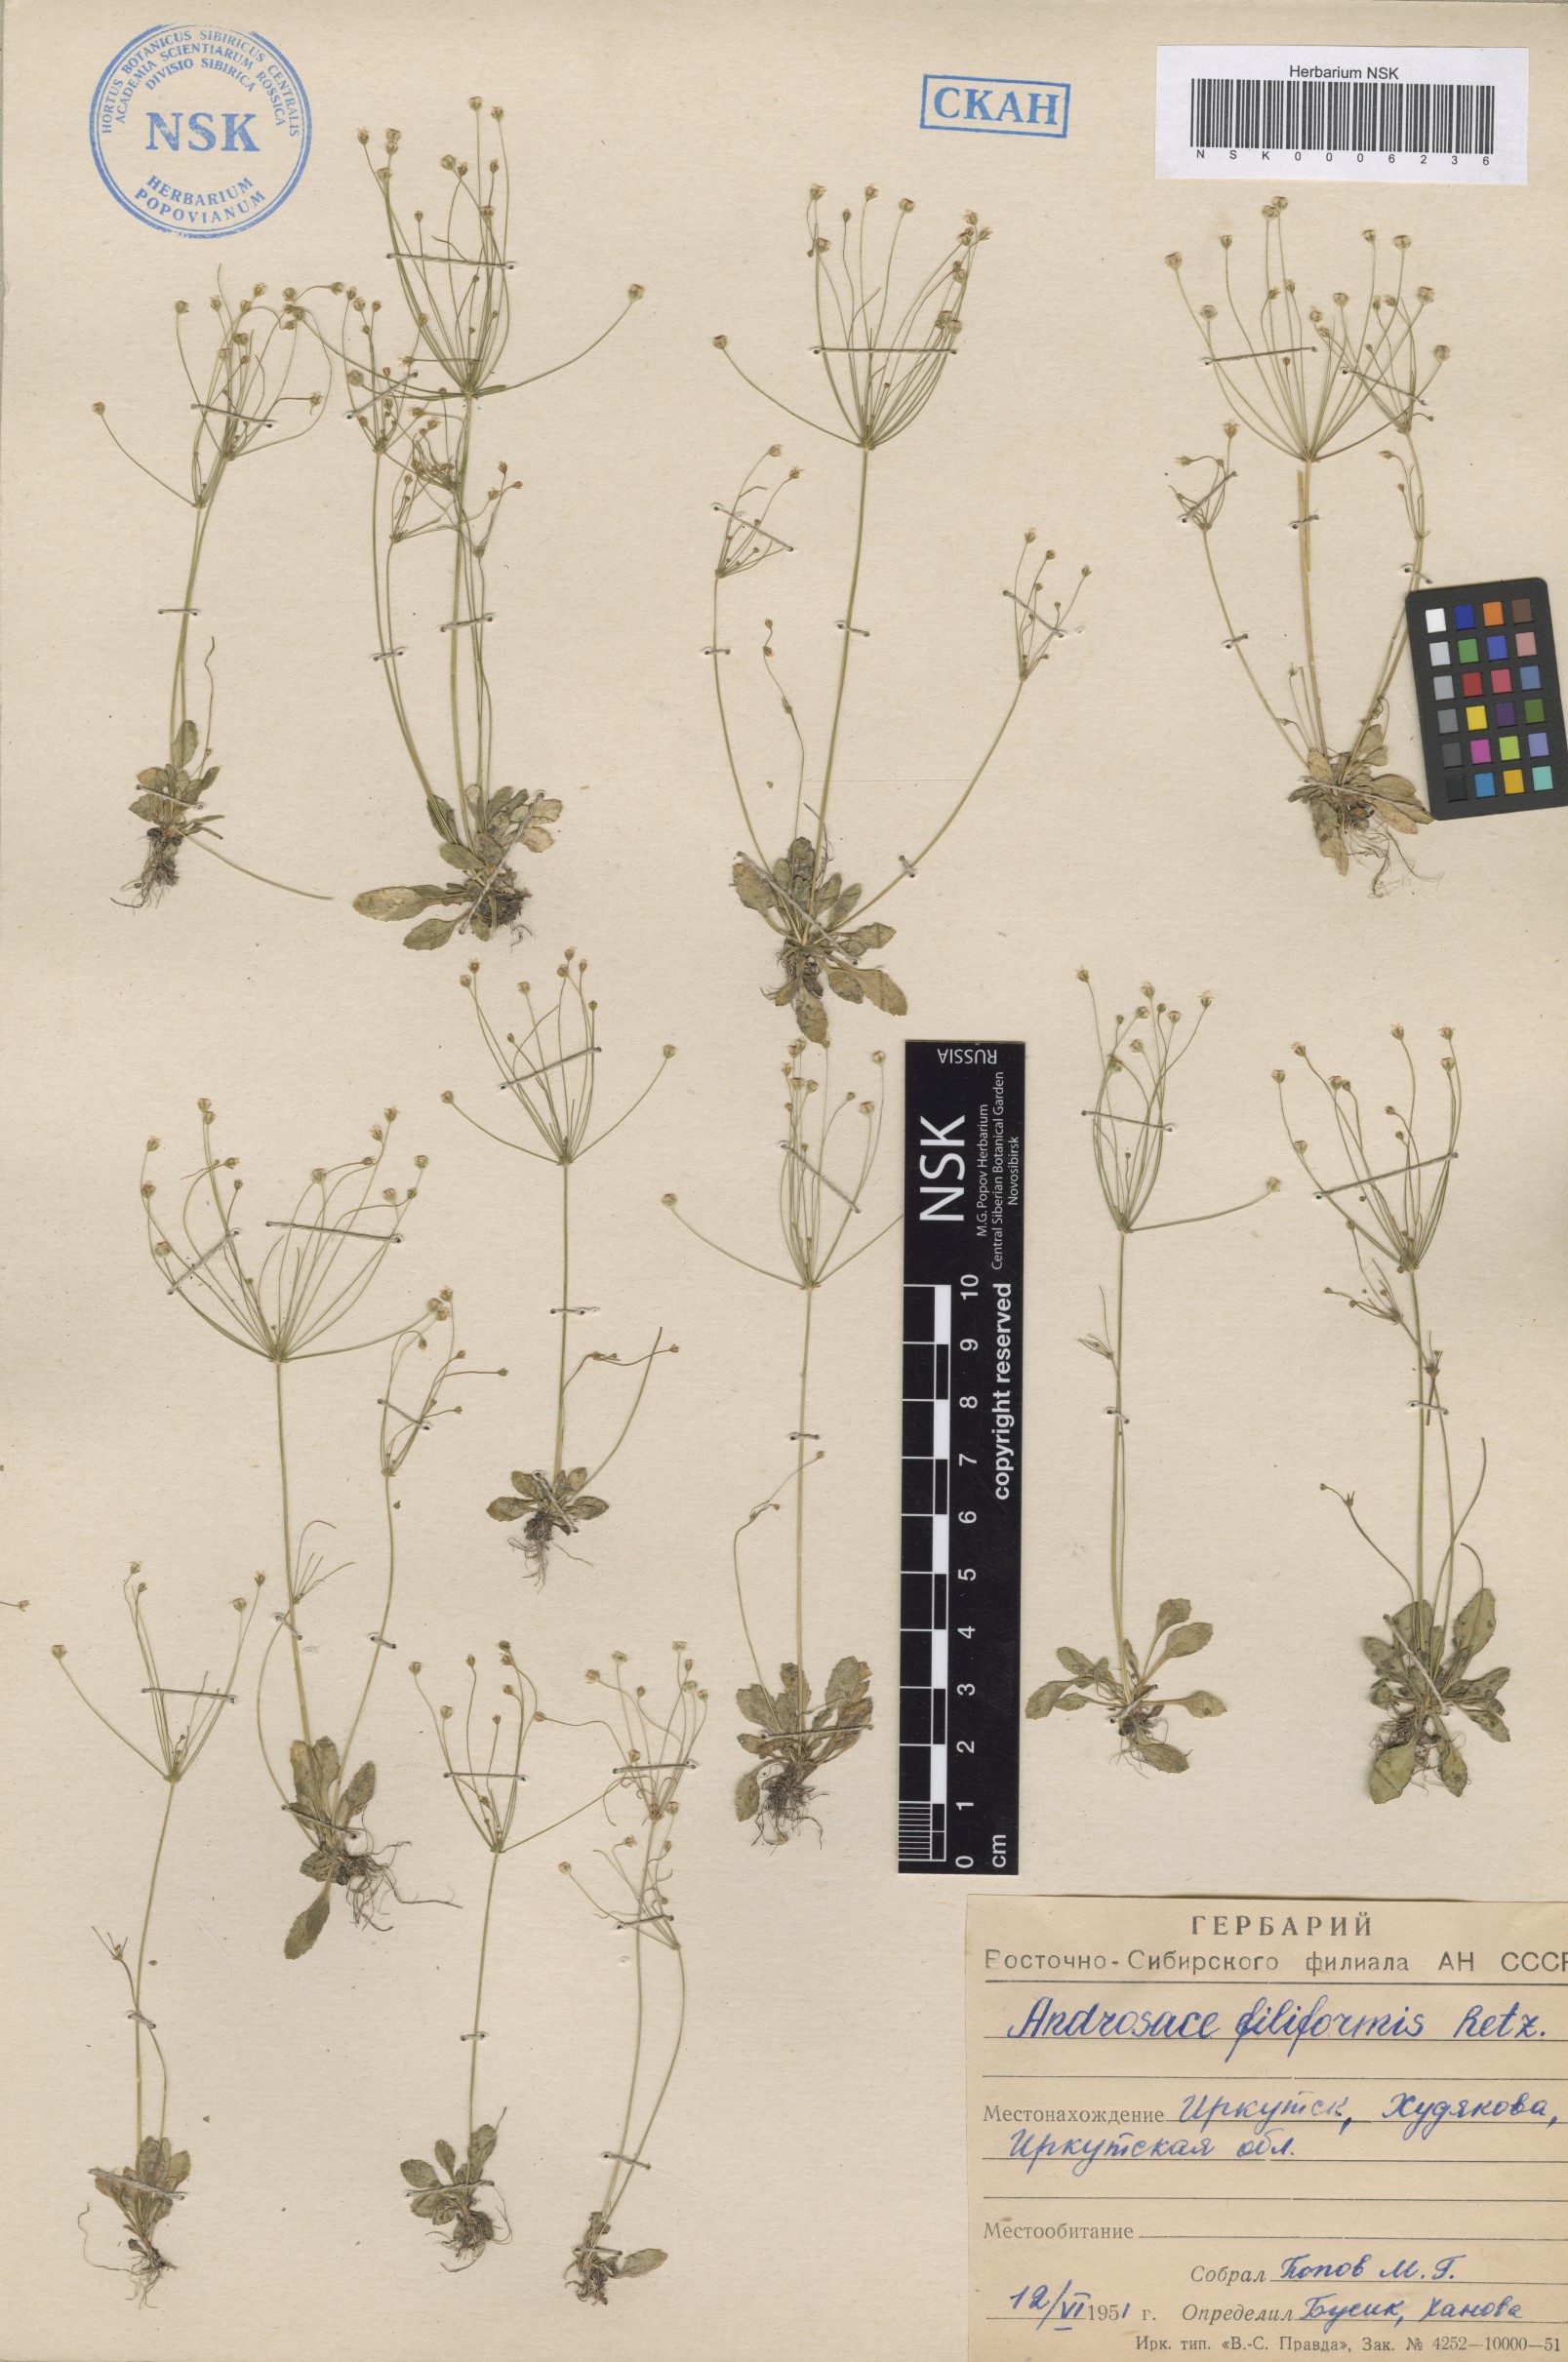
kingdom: Plantae
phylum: Tracheophyta
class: Magnoliopsida
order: Ericales
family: Primulaceae
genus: Androsace
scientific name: Androsace filiformis
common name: Filiform rock jasmine
